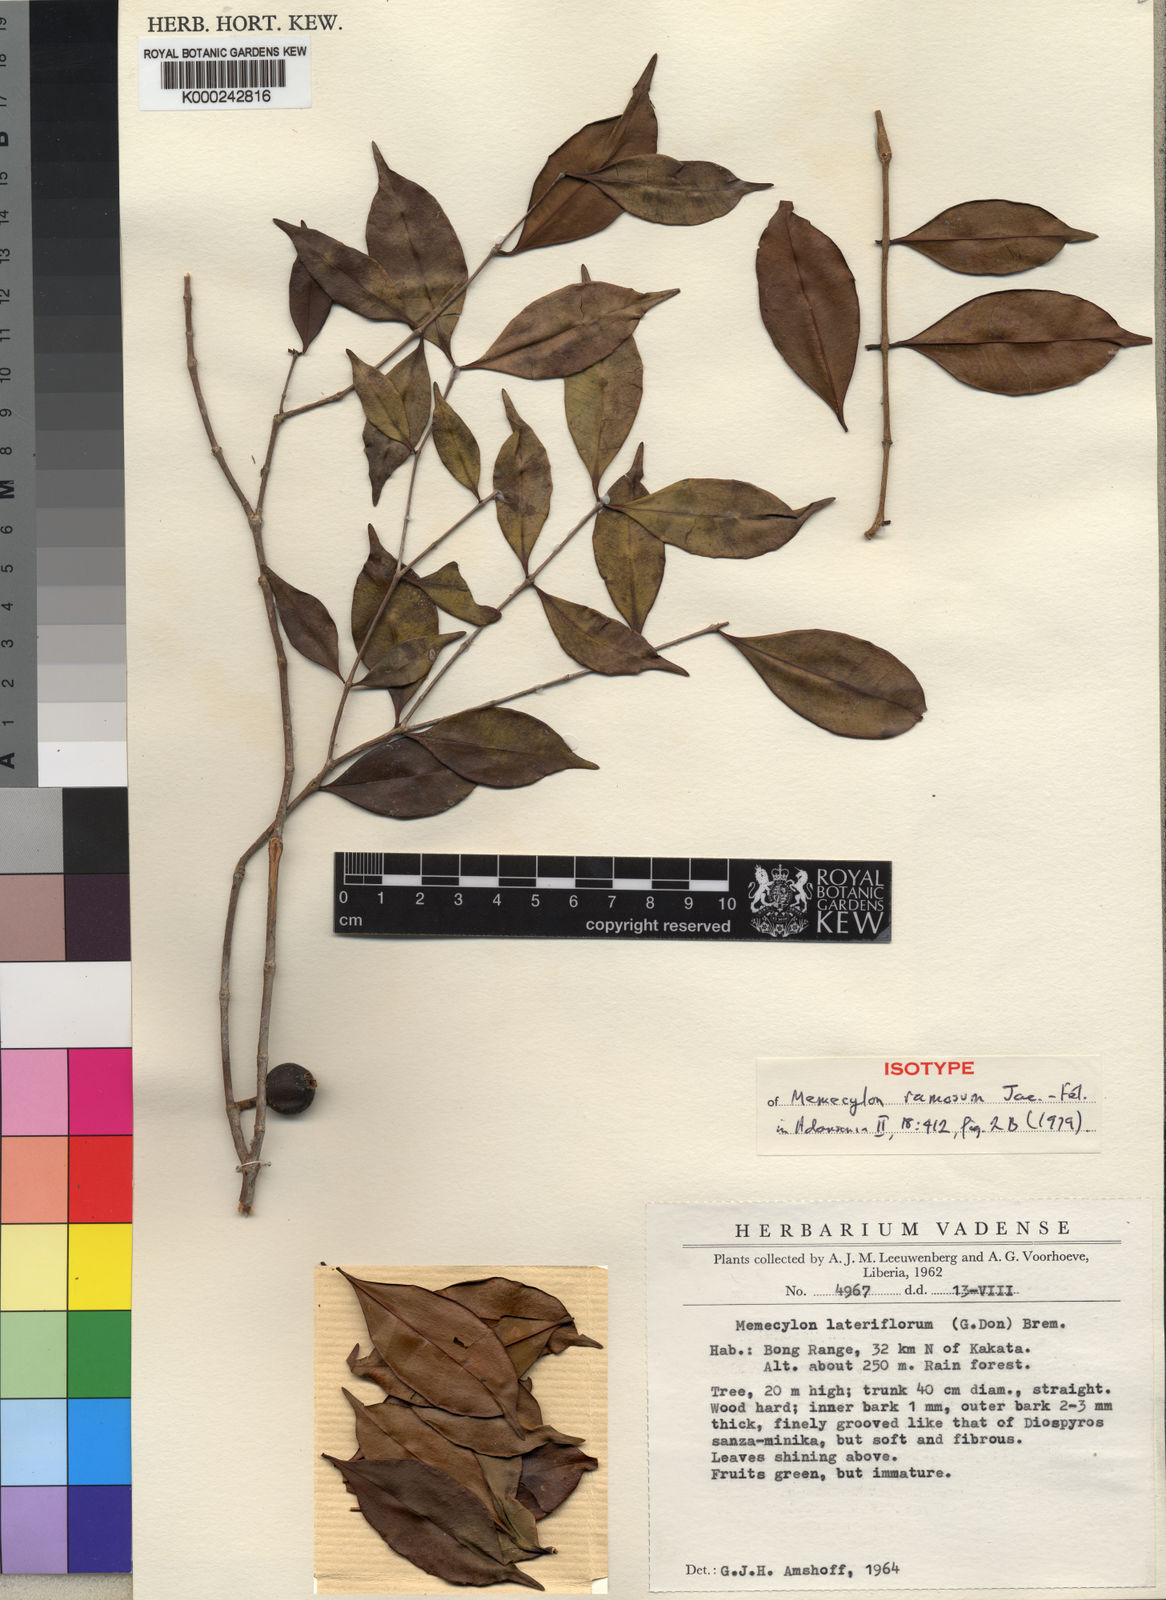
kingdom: Plantae
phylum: Tracheophyta
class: Magnoliopsida
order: Myrtales
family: Melastomataceae
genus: Memecylon
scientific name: Memecylon
